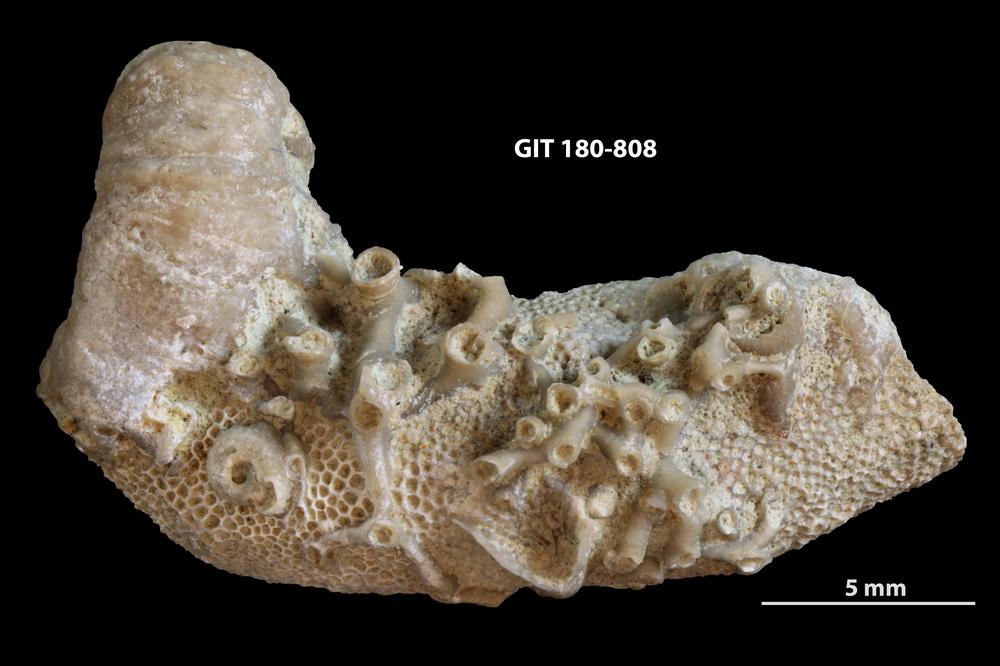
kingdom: Animalia
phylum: Cnidaria
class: Anthozoa
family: Auloporidae
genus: Aulopora
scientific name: Aulopora necopina
